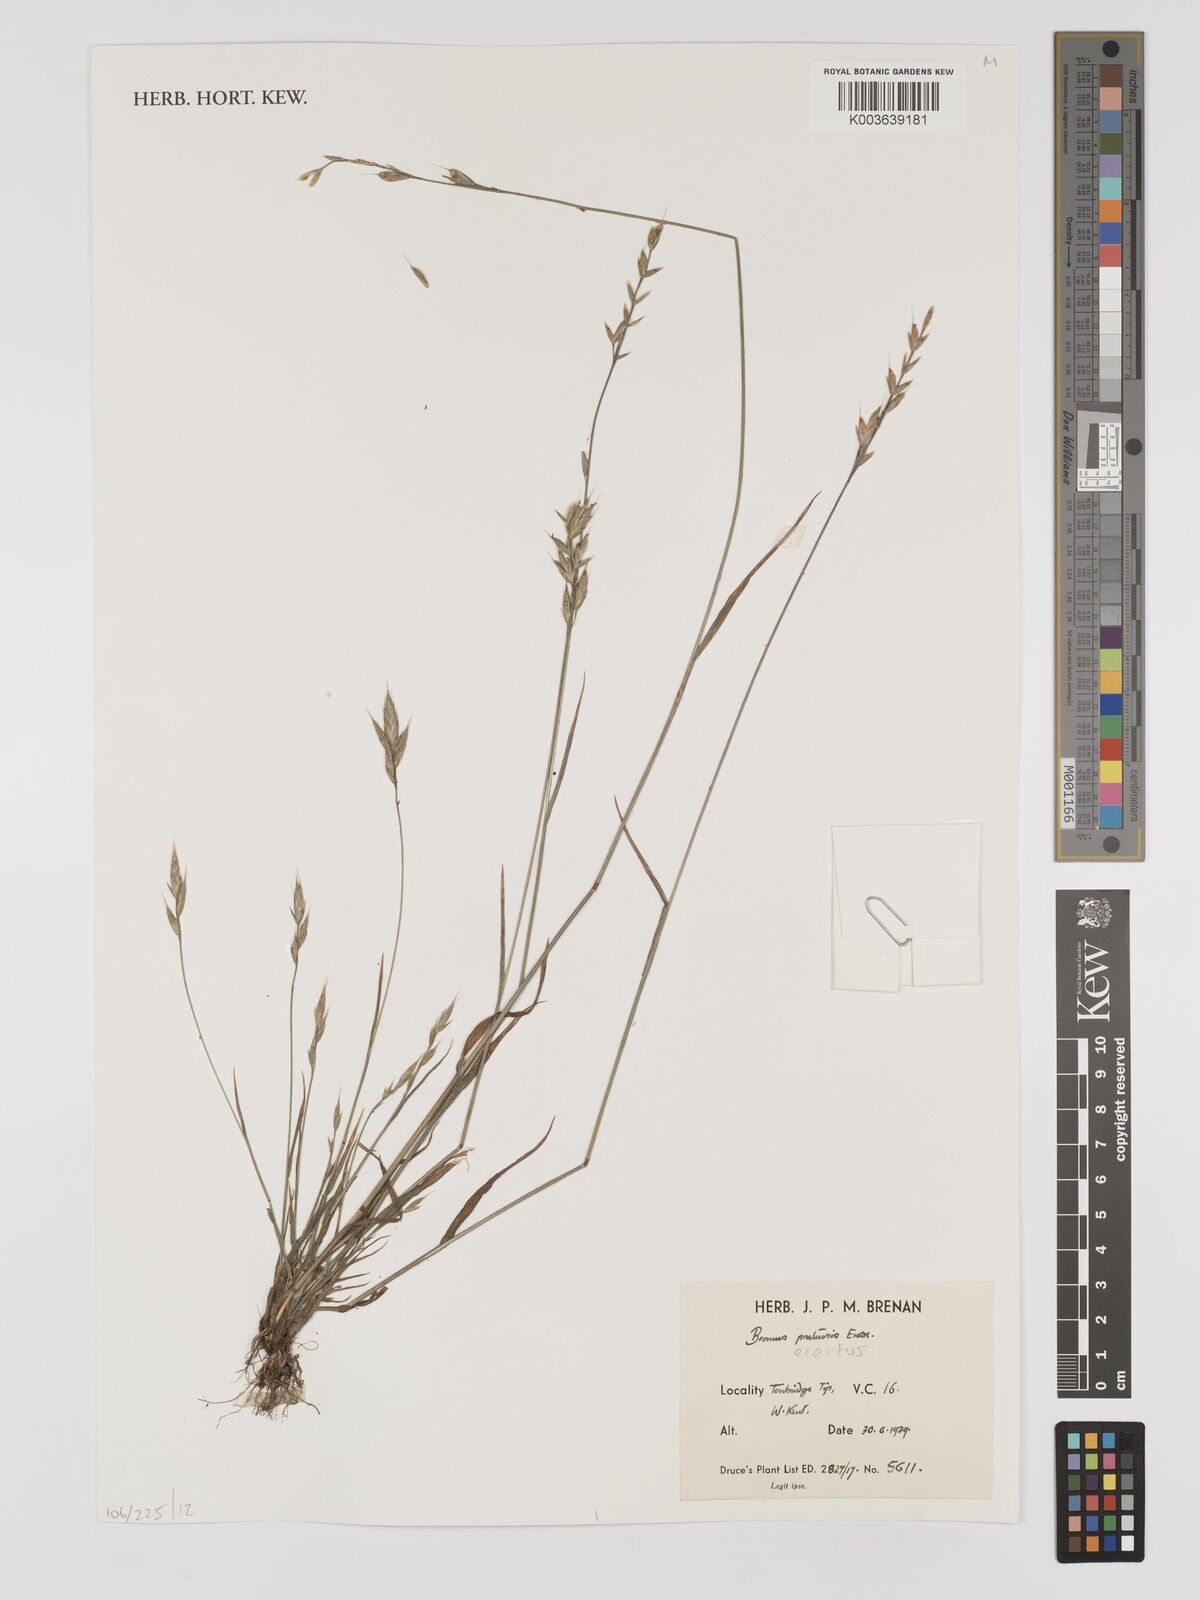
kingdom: Plantae
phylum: Tracheophyta
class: Liliopsida
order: Poales
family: Poaceae
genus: Bromus
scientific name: Bromus erectus
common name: Erect brome
